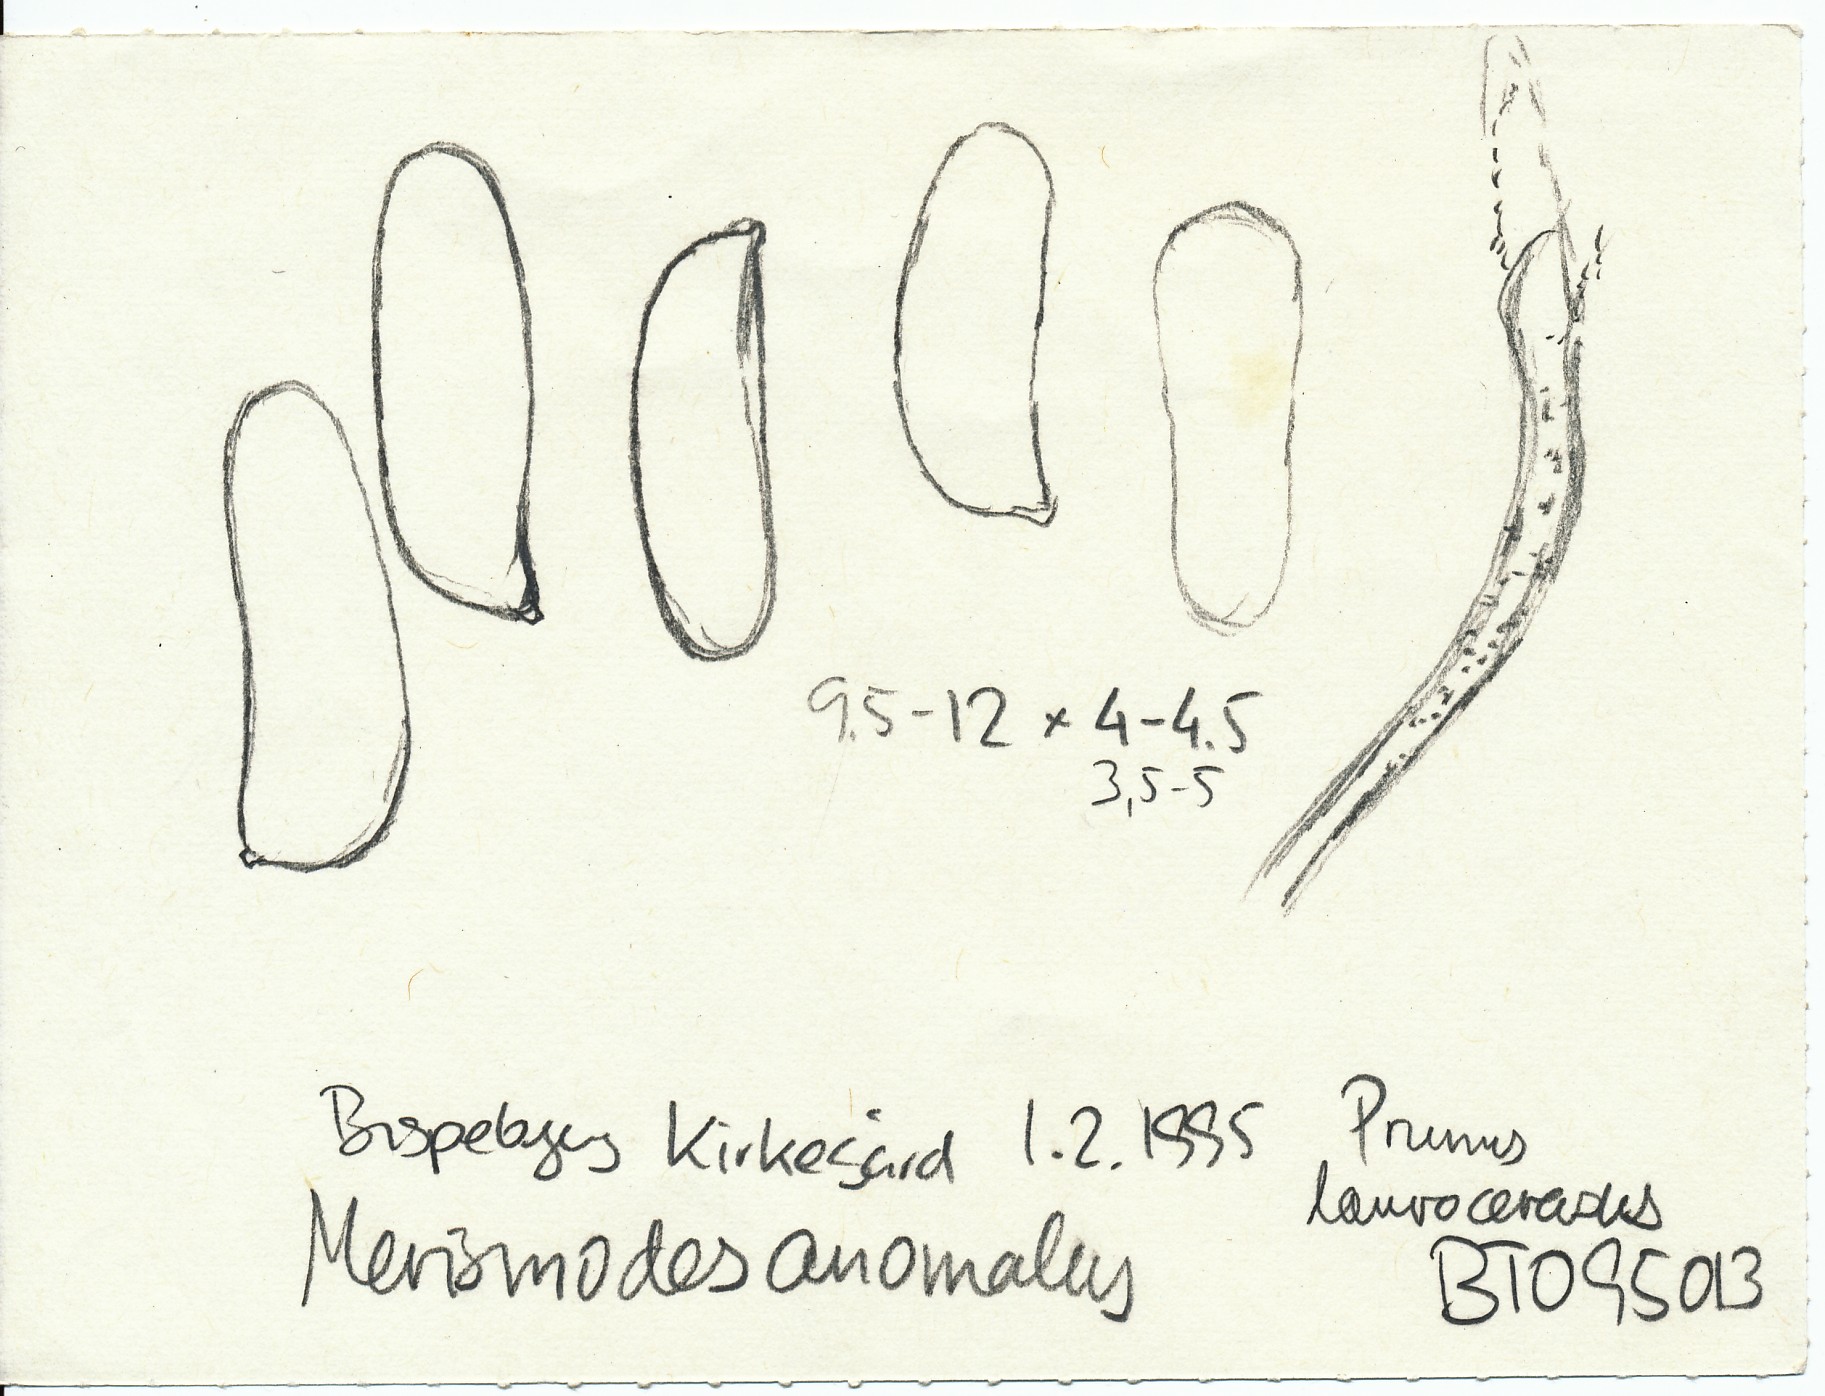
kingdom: Fungi
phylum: Basidiomycota
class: Agaricomycetes
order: Agaricales
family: Niaceae
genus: Merismodes
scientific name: Merismodes anomala
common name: almindelig læderskål
